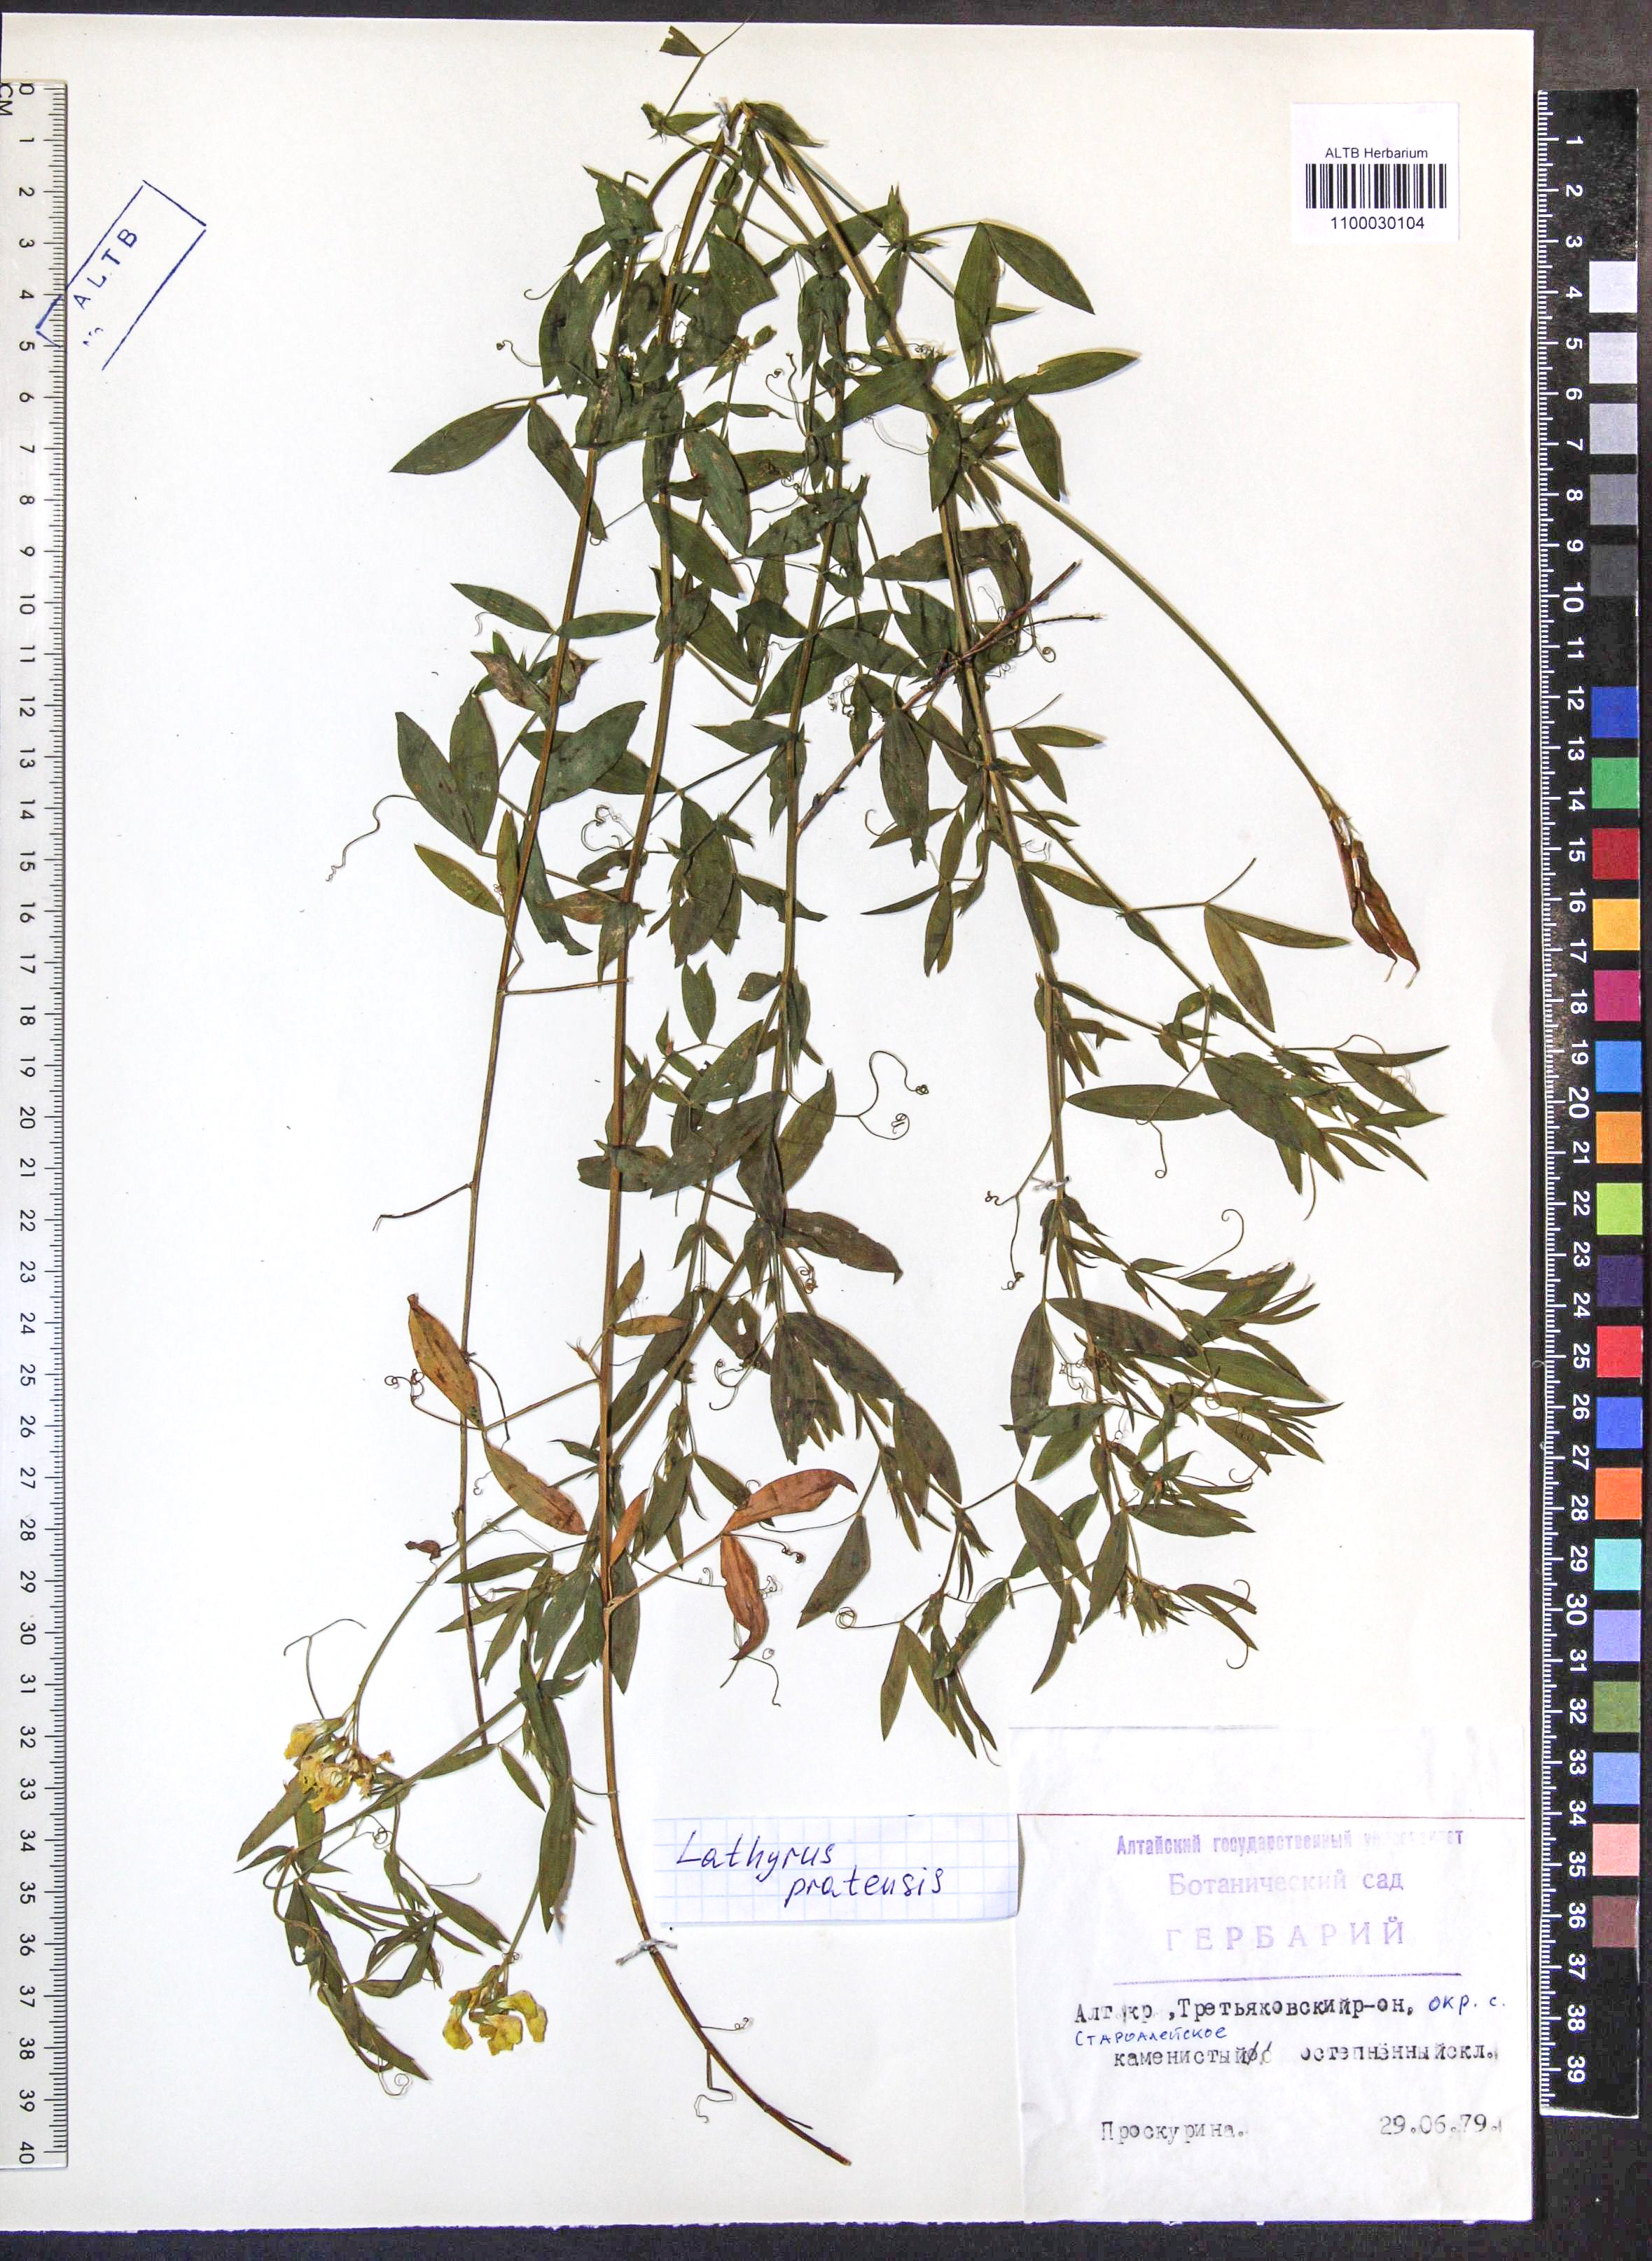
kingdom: Plantae
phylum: Tracheophyta
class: Magnoliopsida
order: Fabales
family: Fabaceae
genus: Lathyrus
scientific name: Lathyrus pratensis
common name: Meadow vetchling
